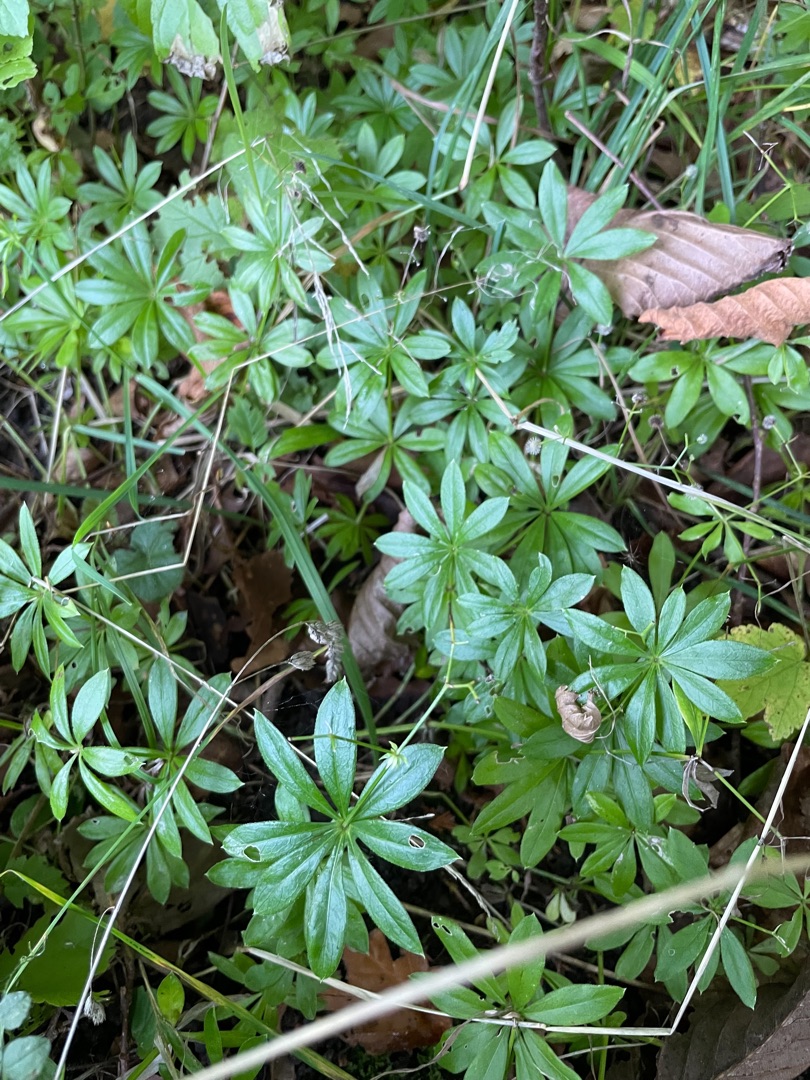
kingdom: Plantae
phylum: Tracheophyta
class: Magnoliopsida
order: Gentianales
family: Rubiaceae
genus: Galium
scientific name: Galium odoratum
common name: Skovmærke
